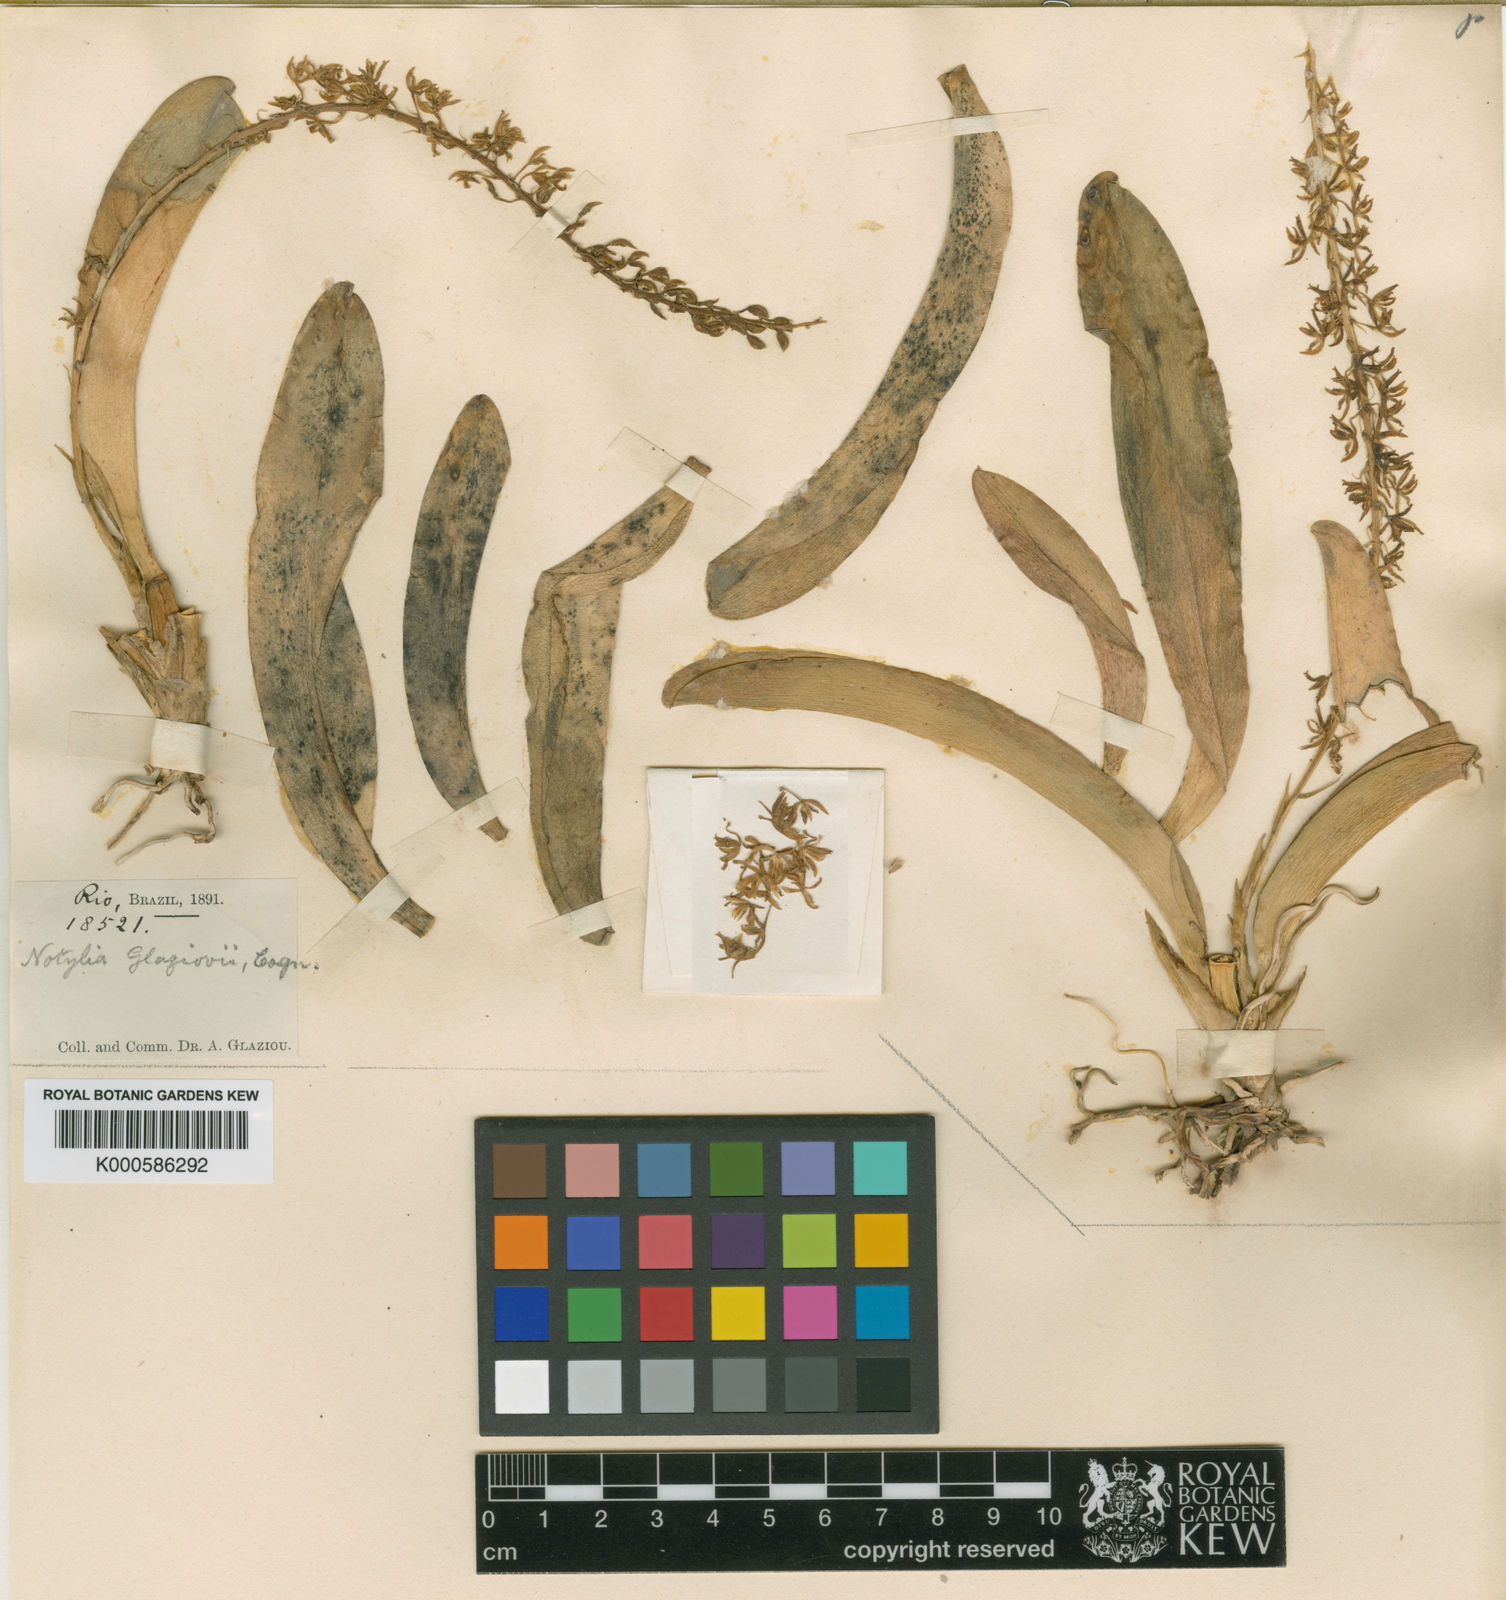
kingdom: Plantae
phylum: Tracheophyta
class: Liliopsida
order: Asparagales
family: Orchidaceae
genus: Notylia
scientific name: Notylia glaziovii
